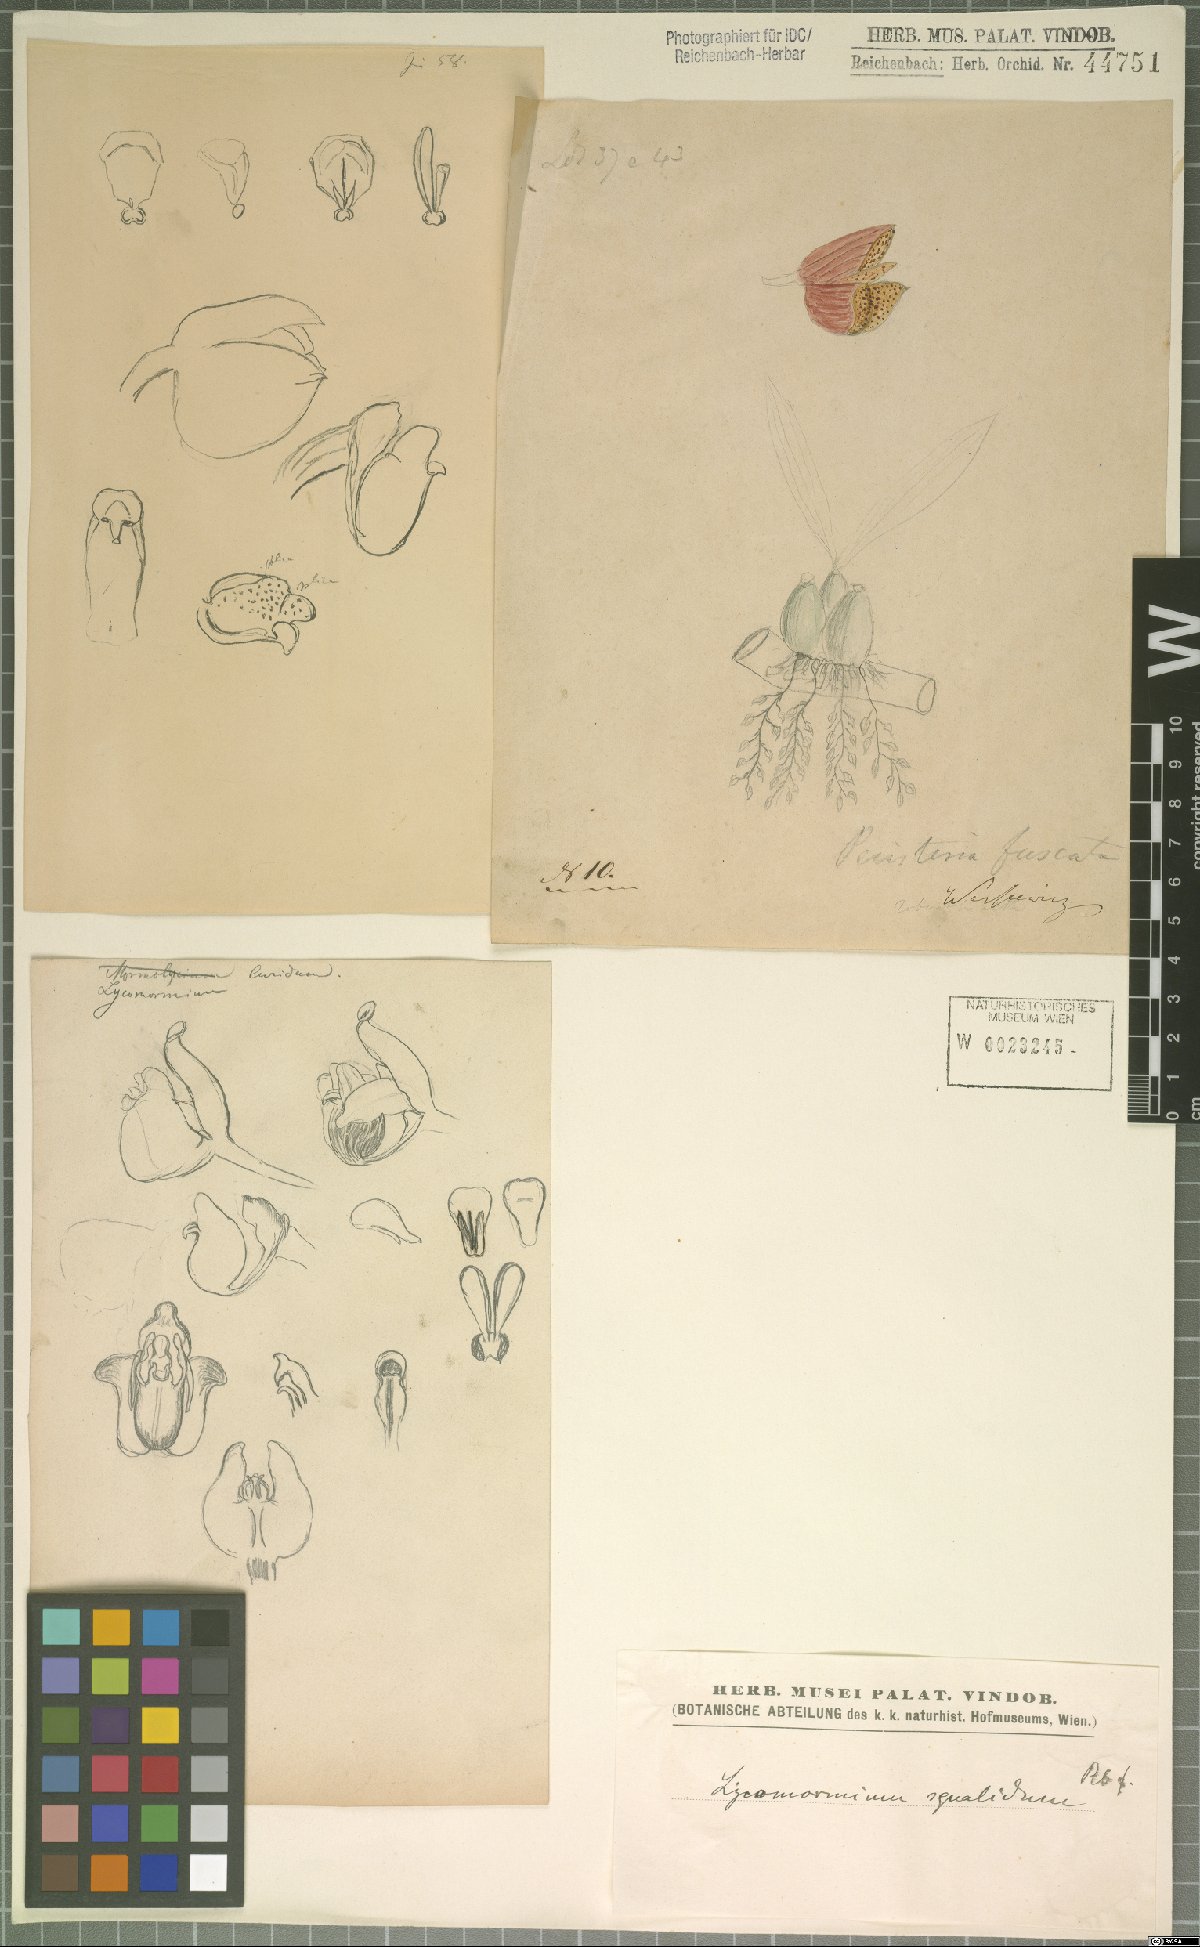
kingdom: Plantae
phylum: Tracheophyta
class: Liliopsida
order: Asparagales
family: Orchidaceae
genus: Lycomormium
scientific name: Lycomormium squalidum
